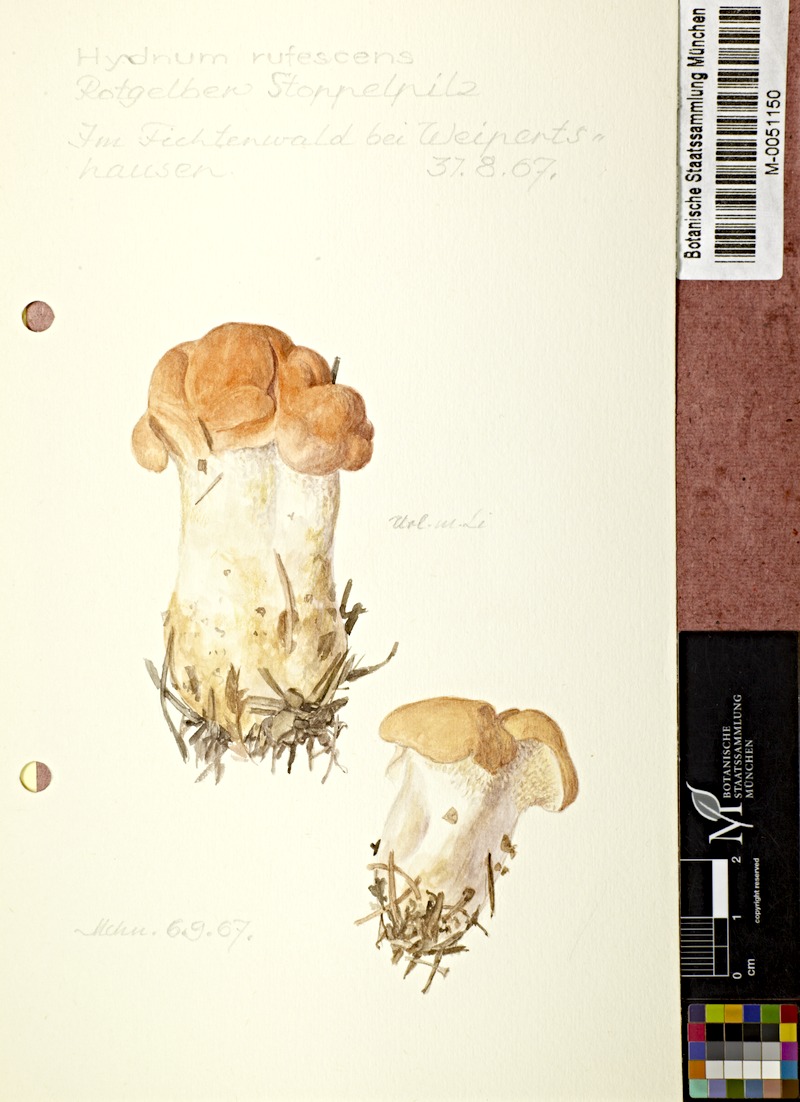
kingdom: Fungi
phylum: Basidiomycota
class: Agaricomycetes
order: Cantharellales
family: Hydnaceae
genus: Hydnum
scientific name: Hydnum rufescens
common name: Terracotta hedgehog
